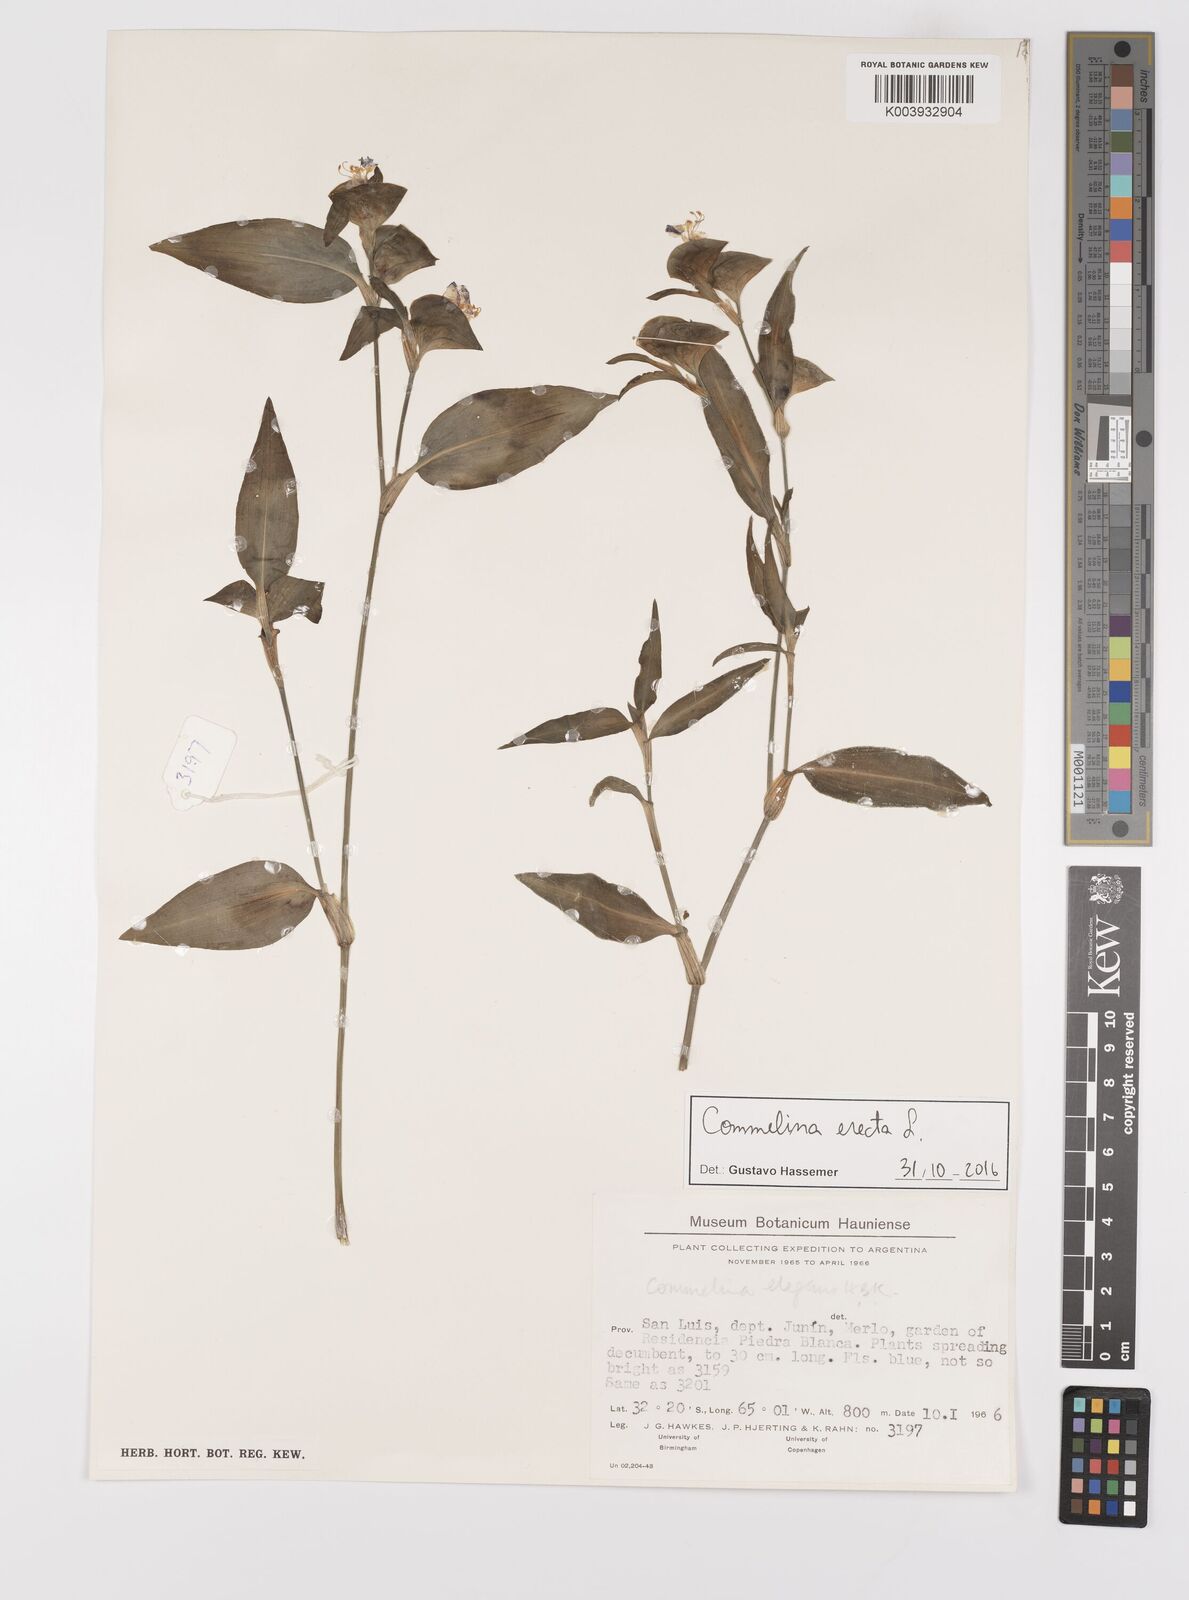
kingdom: Plantae
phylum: Tracheophyta
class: Liliopsida
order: Commelinales
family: Commelinaceae
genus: Commelina
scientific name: Commelina erecta
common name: Blousel blommetjie
